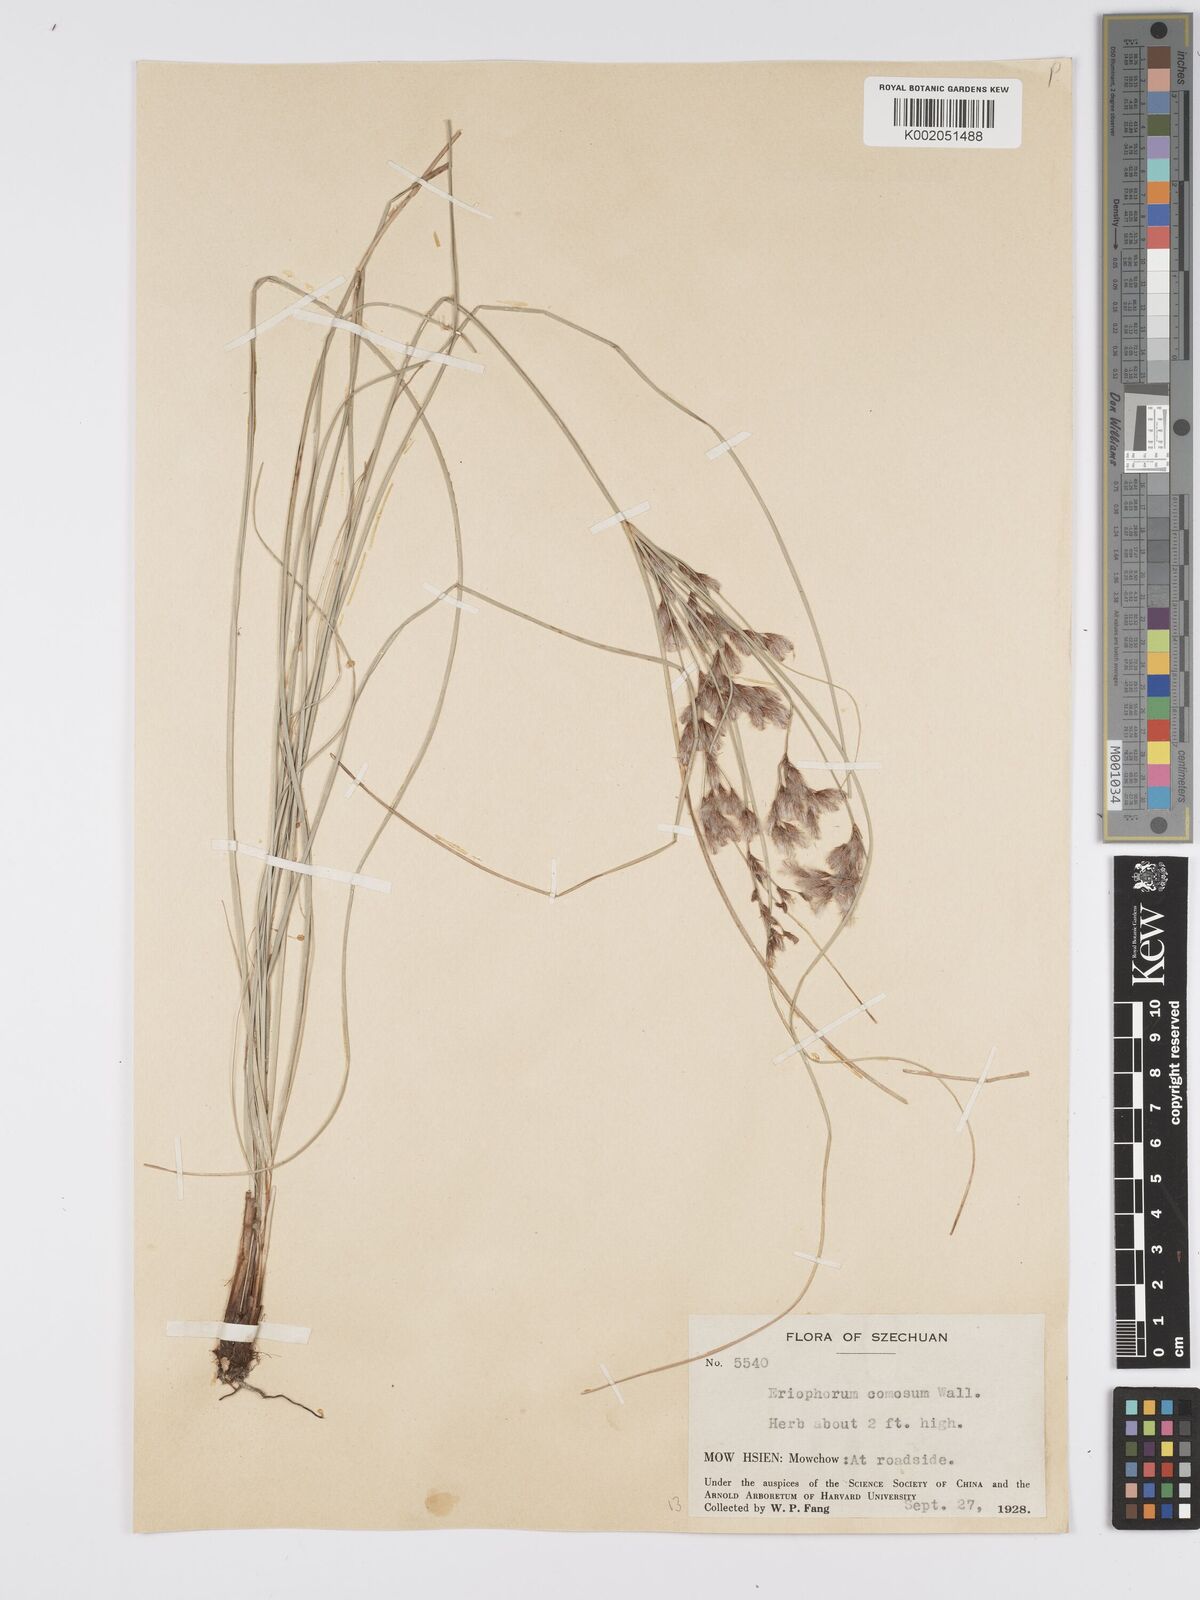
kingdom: Plantae
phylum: Tracheophyta
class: Liliopsida
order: Poales
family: Cyperaceae
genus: Erioscirpus
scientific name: Erioscirpus comosus
